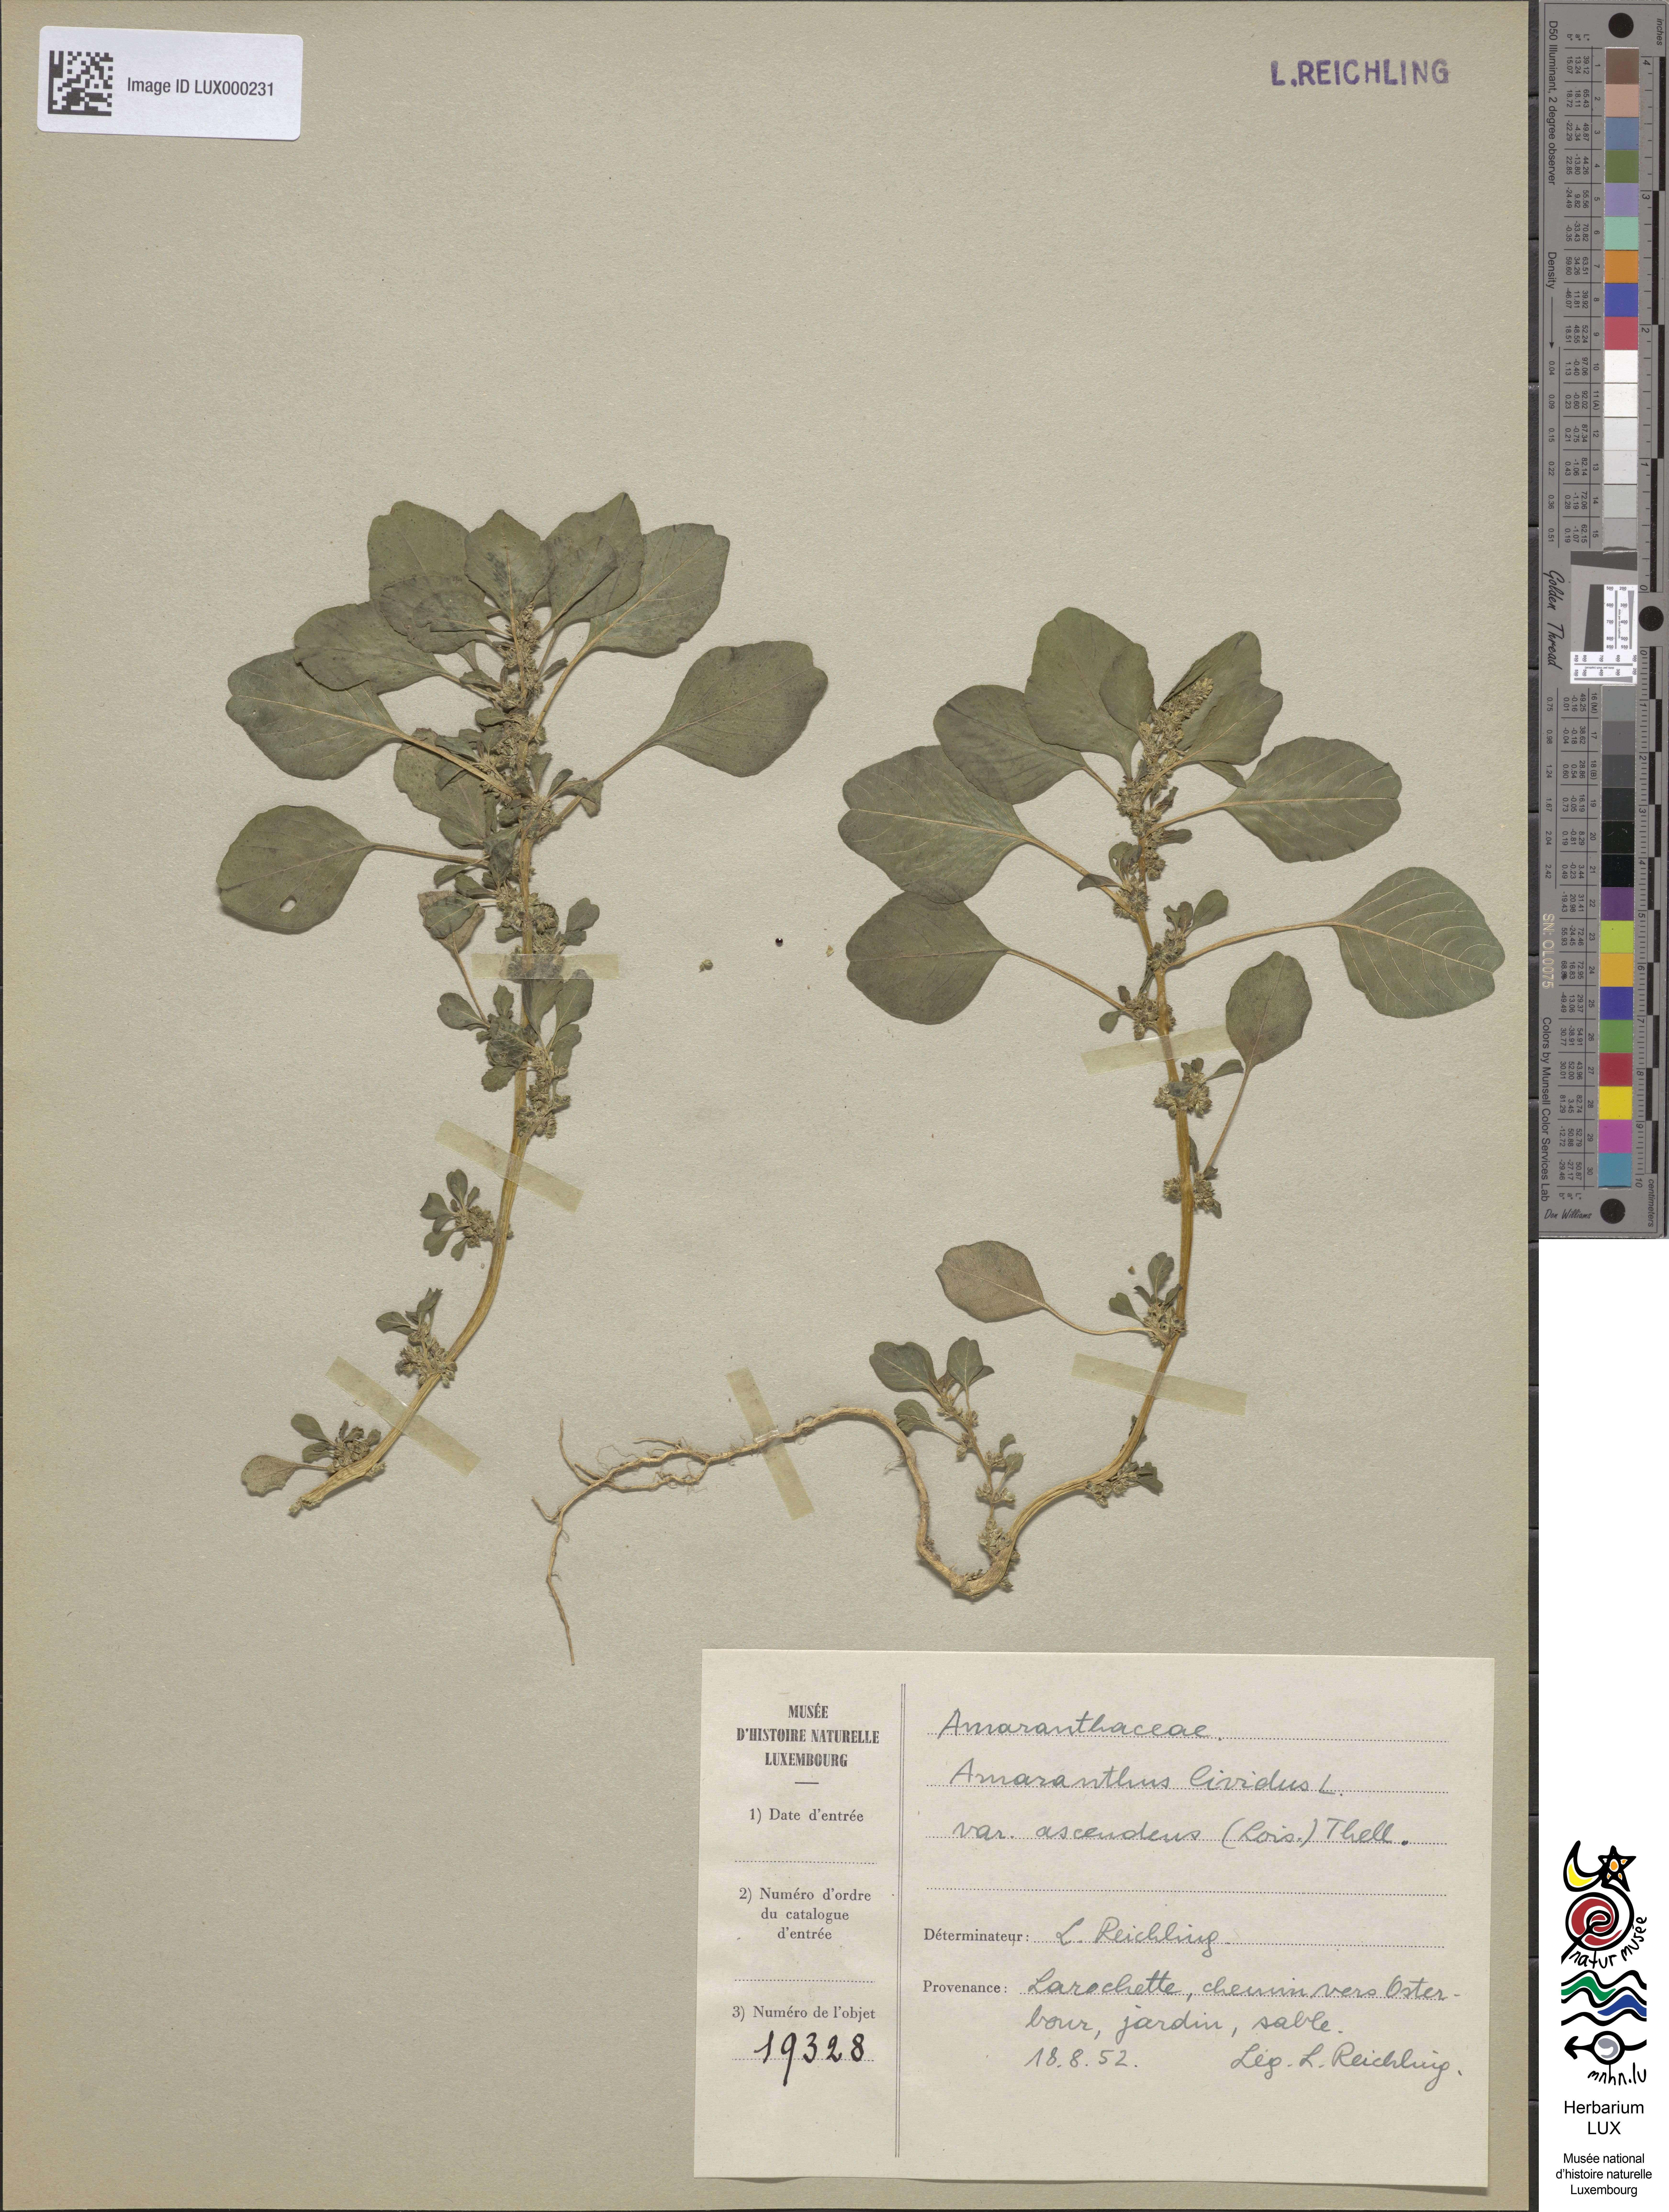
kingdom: Plantae
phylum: Tracheophyta
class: Magnoliopsida
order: Caryophyllales
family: Amaranthaceae
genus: Amaranthus
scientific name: Amaranthus blitum
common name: Purple amaranth
